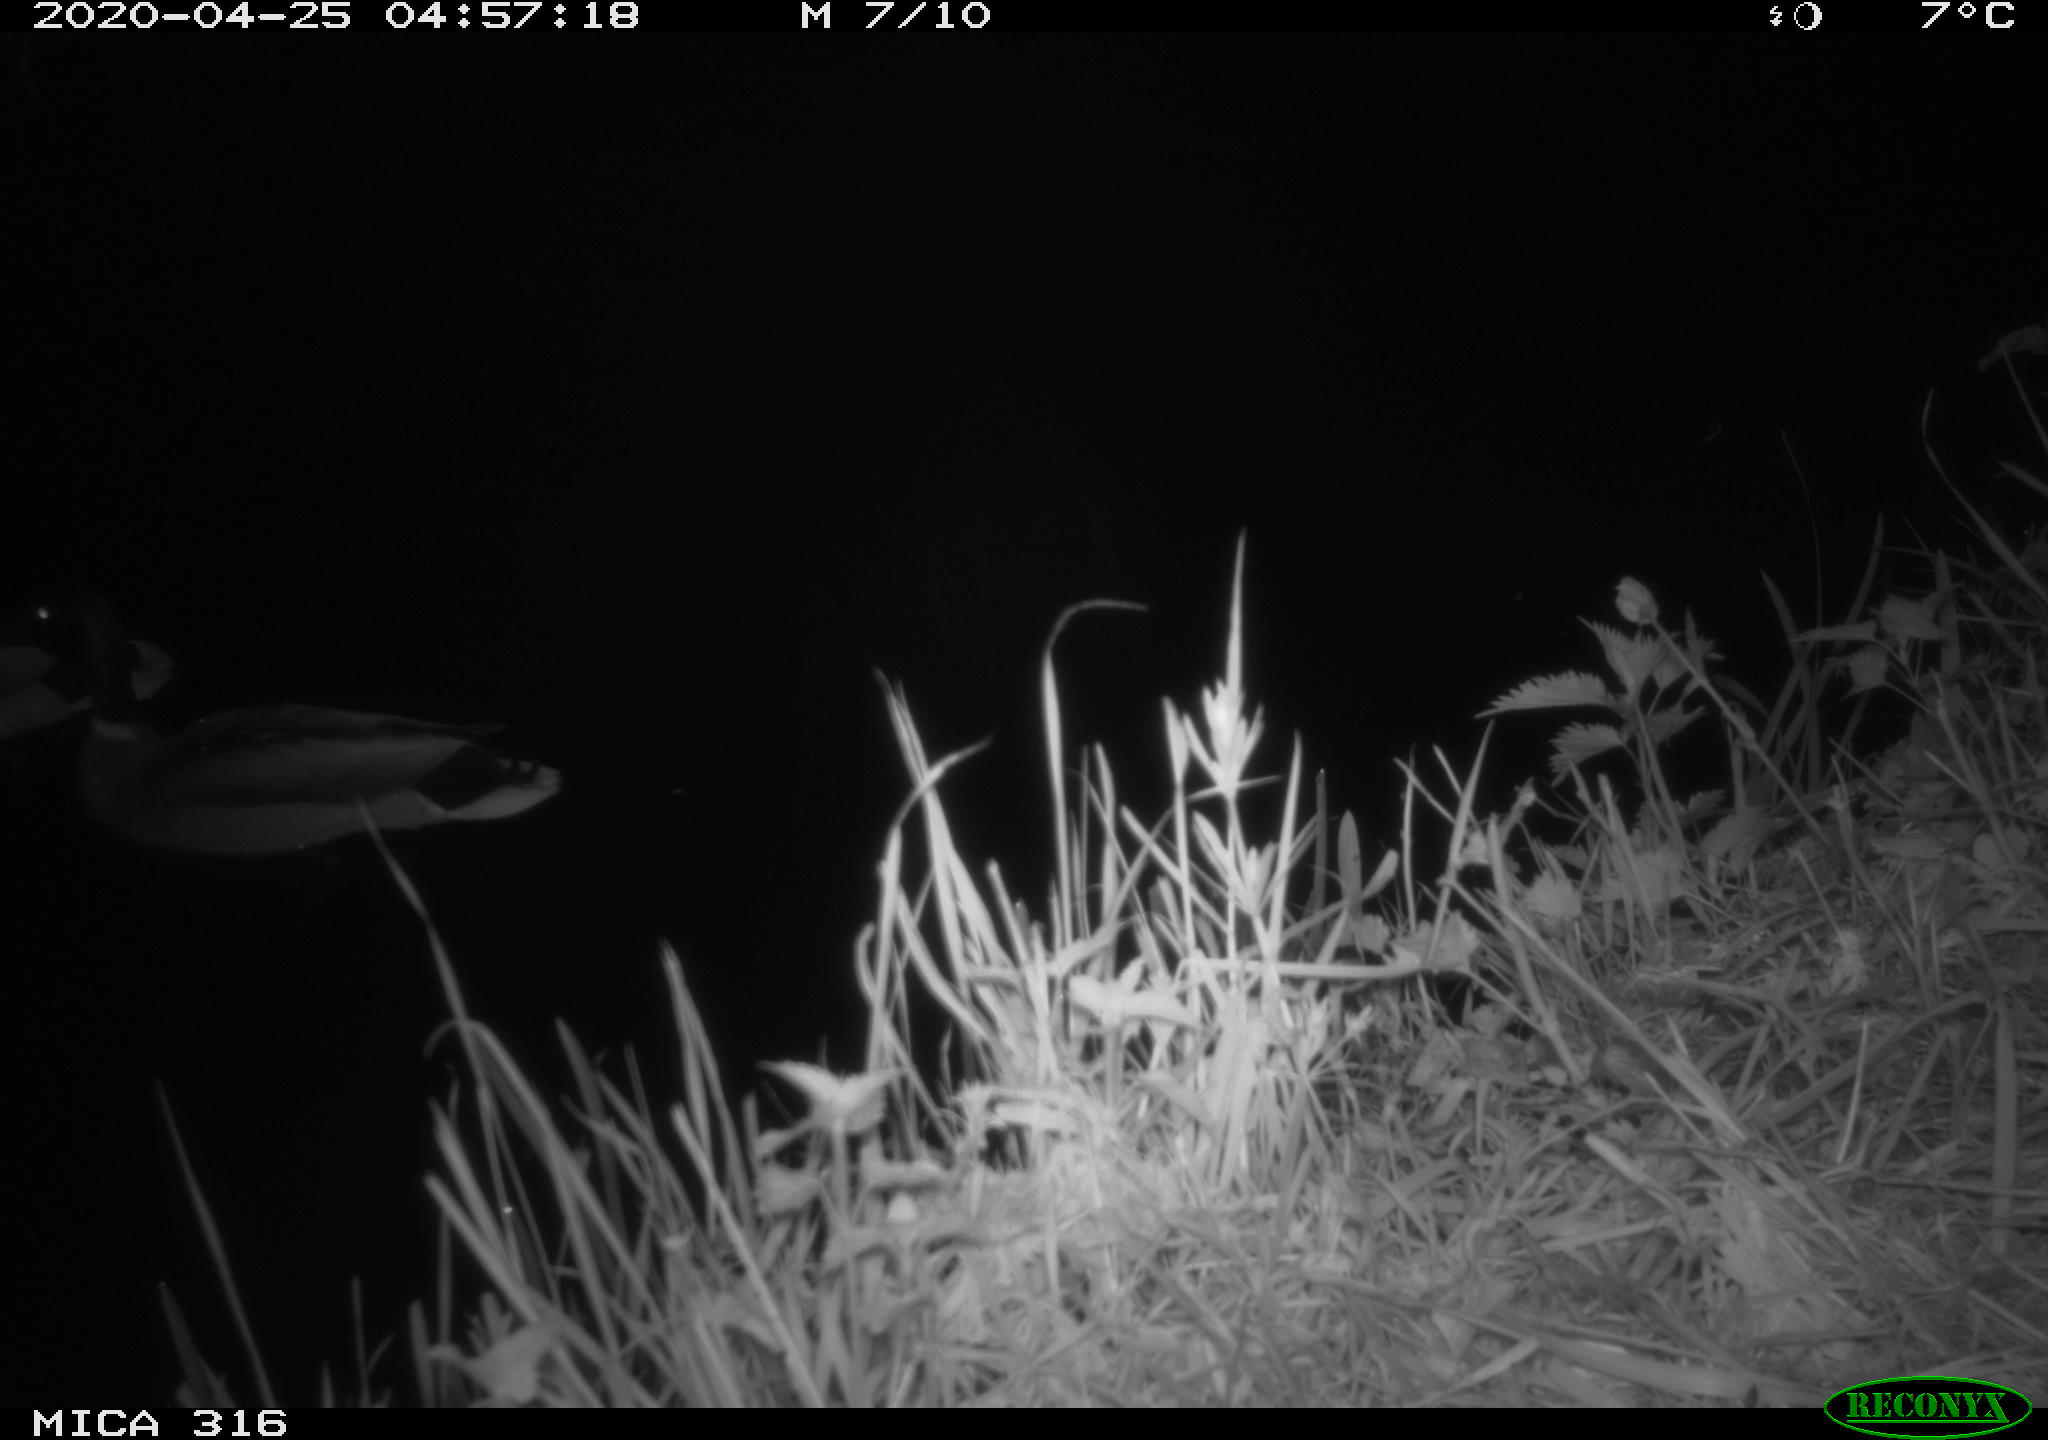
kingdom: Animalia
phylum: Chordata
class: Aves
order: Anseriformes
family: Anatidae
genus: Anas
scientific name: Anas platyrhynchos
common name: Mallard
